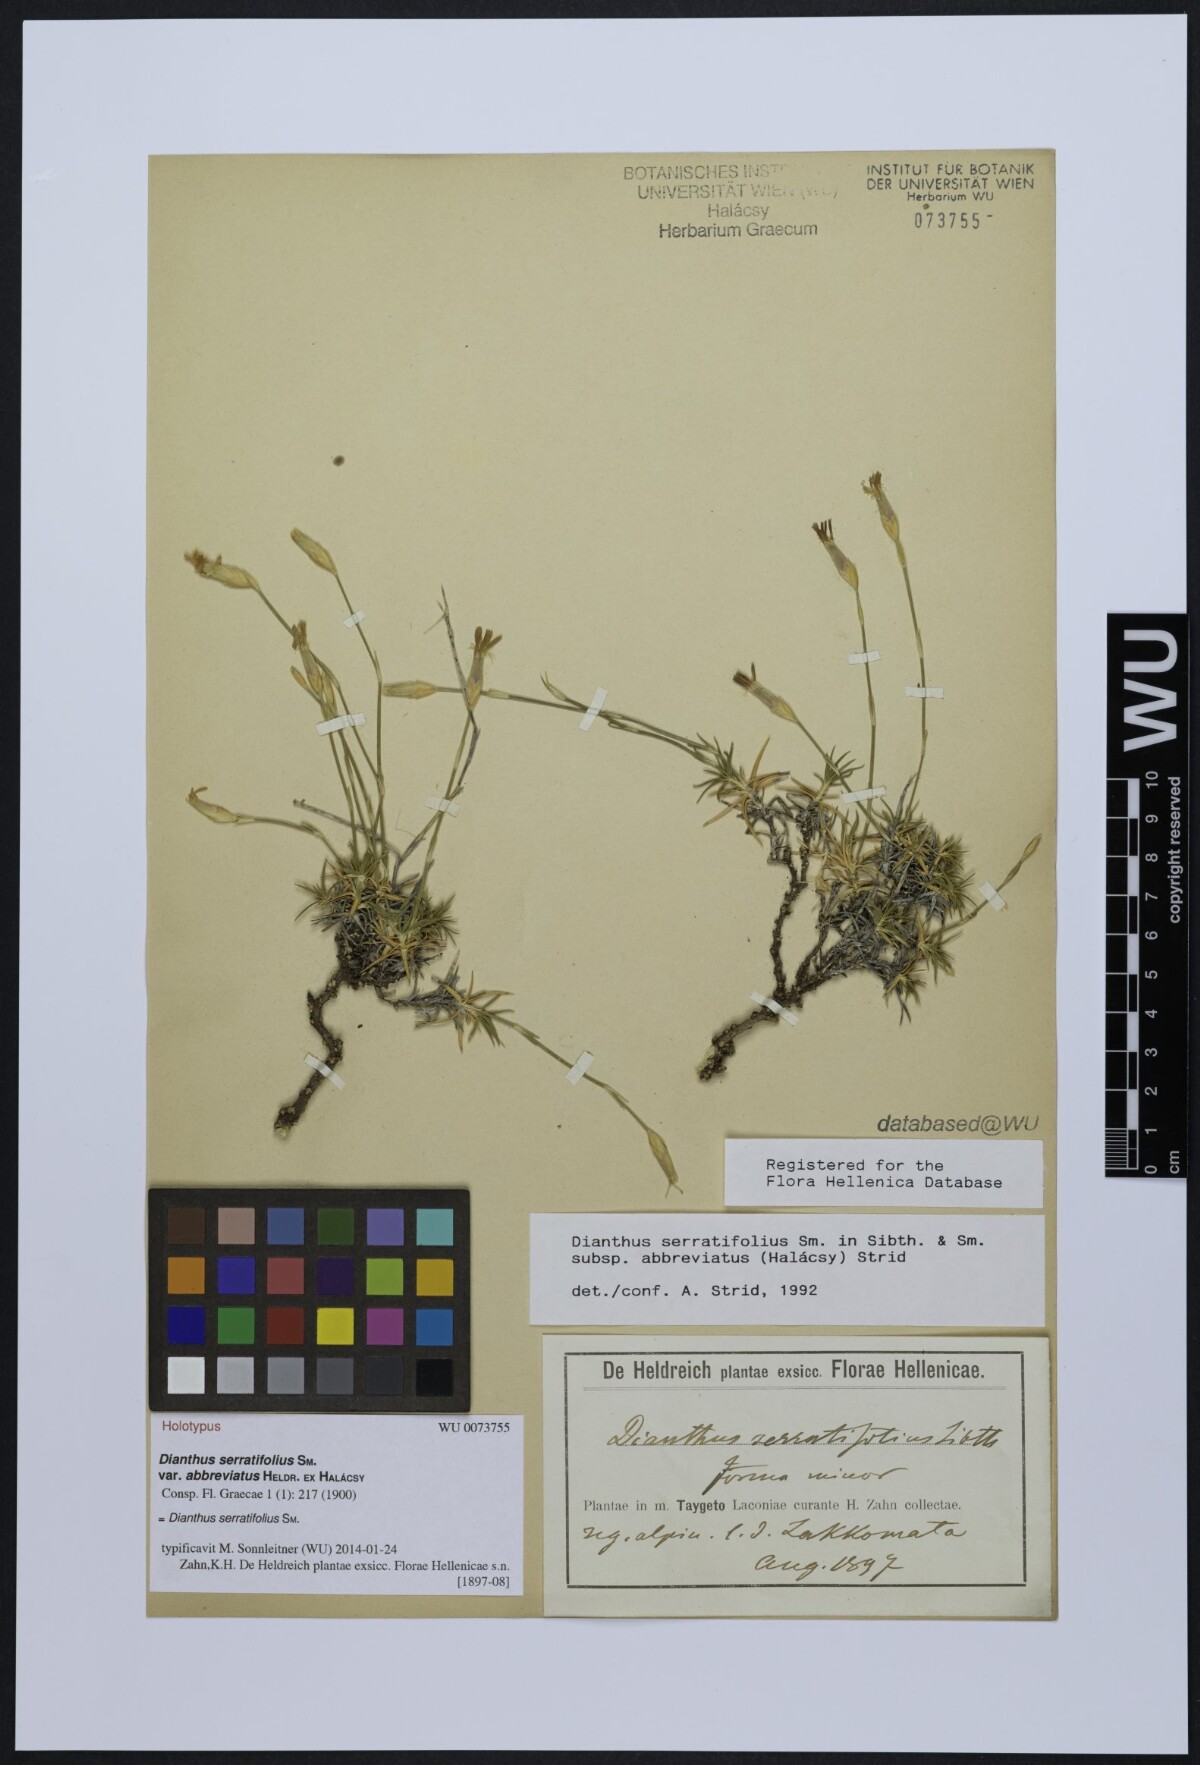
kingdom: Plantae
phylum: Tracheophyta
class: Magnoliopsida
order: Caryophyllales
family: Caryophyllaceae
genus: Dianthus
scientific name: Dianthus serratifolius
